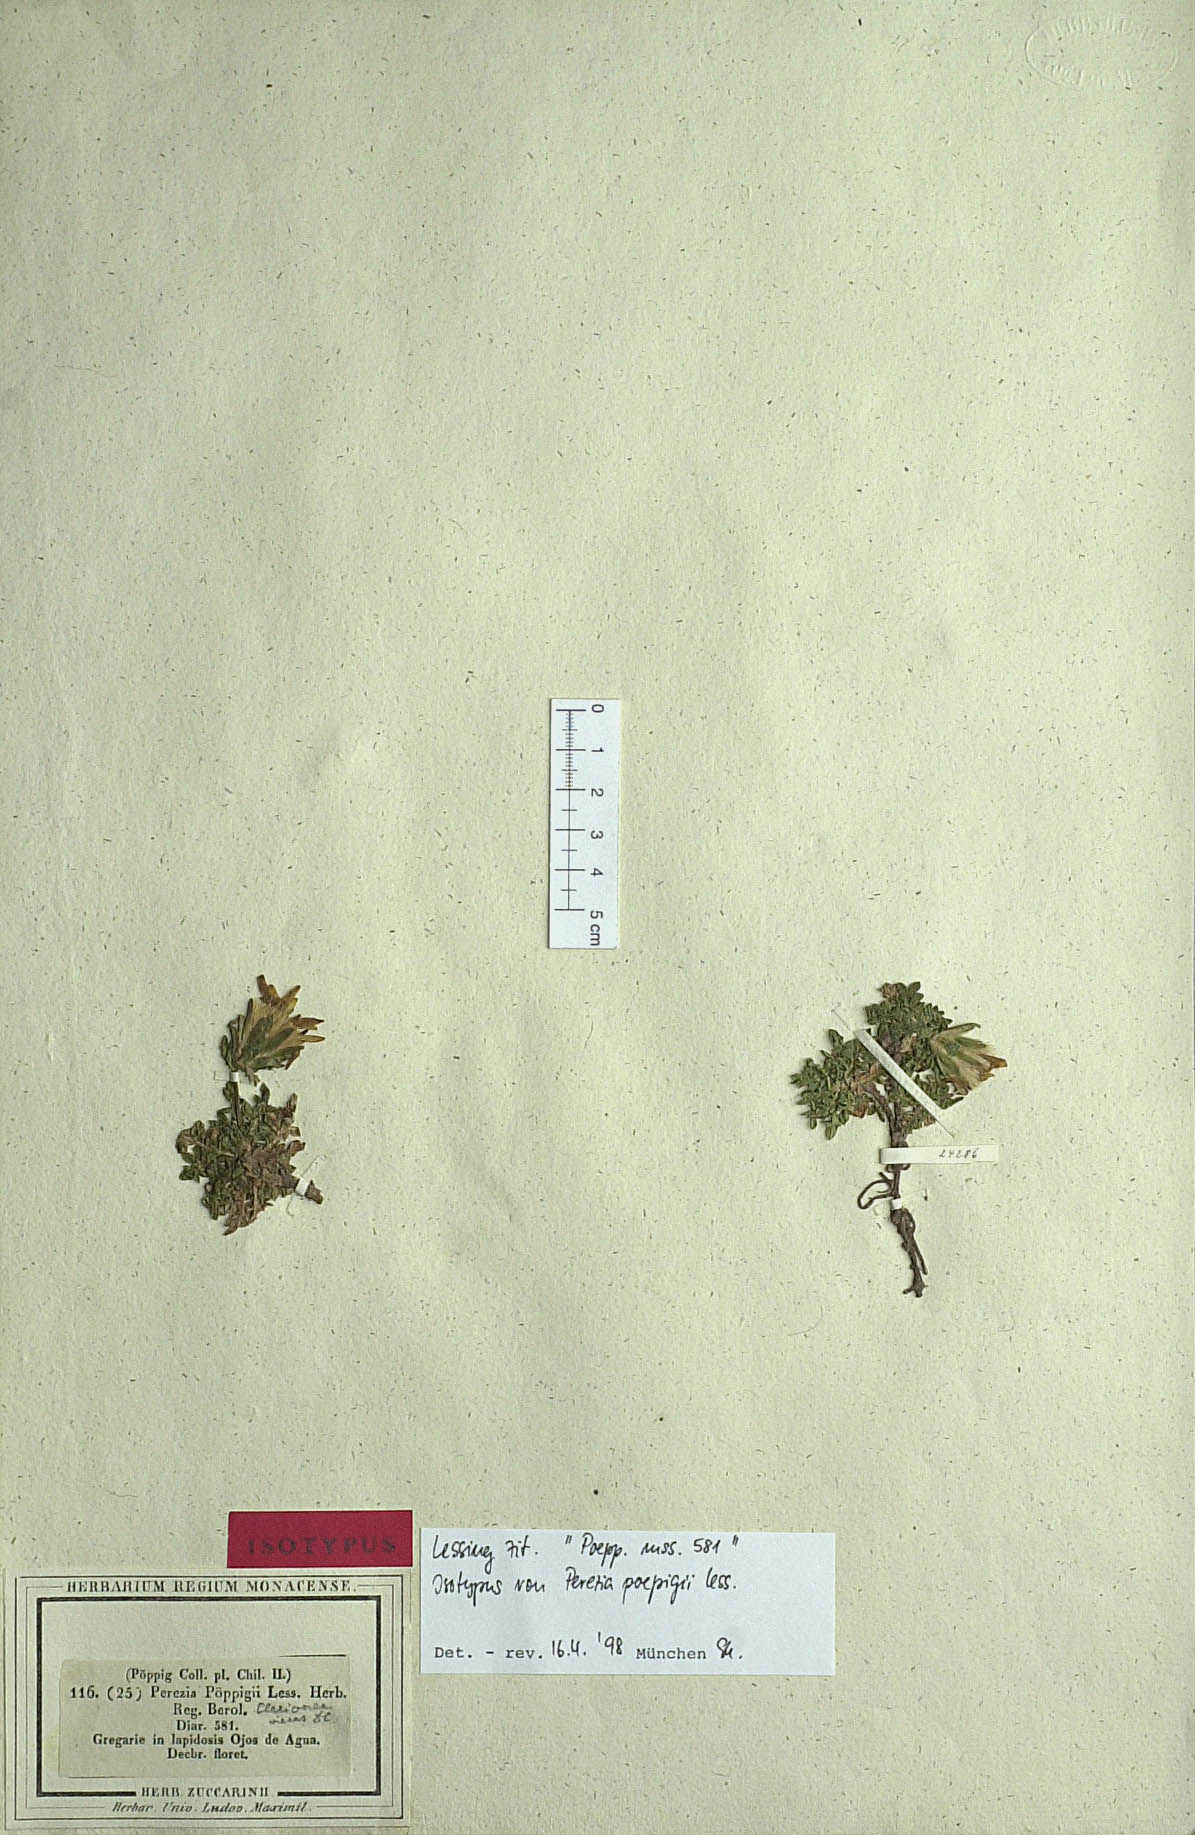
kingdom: Plantae
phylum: Tracheophyta
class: Magnoliopsida
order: Asterales
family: Asteraceae
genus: Perezia
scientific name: Perezia poeppigii
